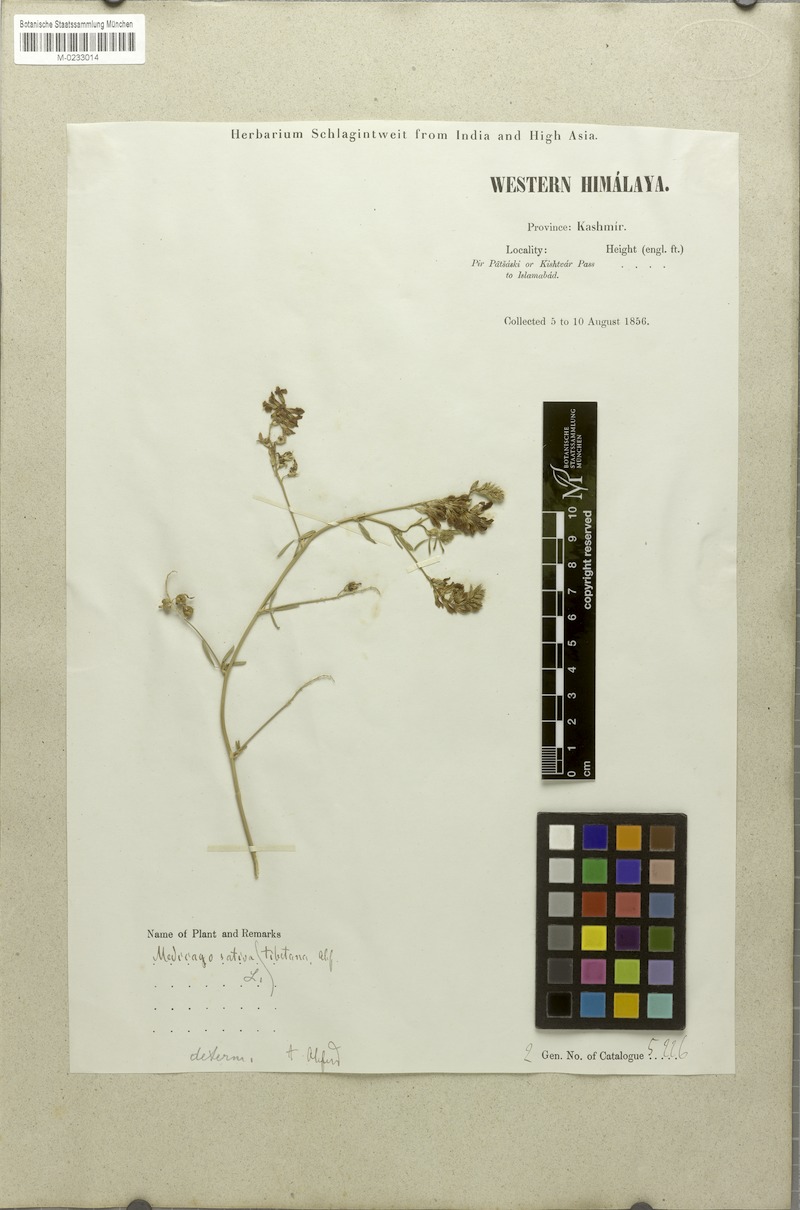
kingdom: Plantae
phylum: Tracheophyta
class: Magnoliopsida
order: Fabales
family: Fabaceae
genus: Medicago
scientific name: Medicago sativa
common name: Alfalfa
